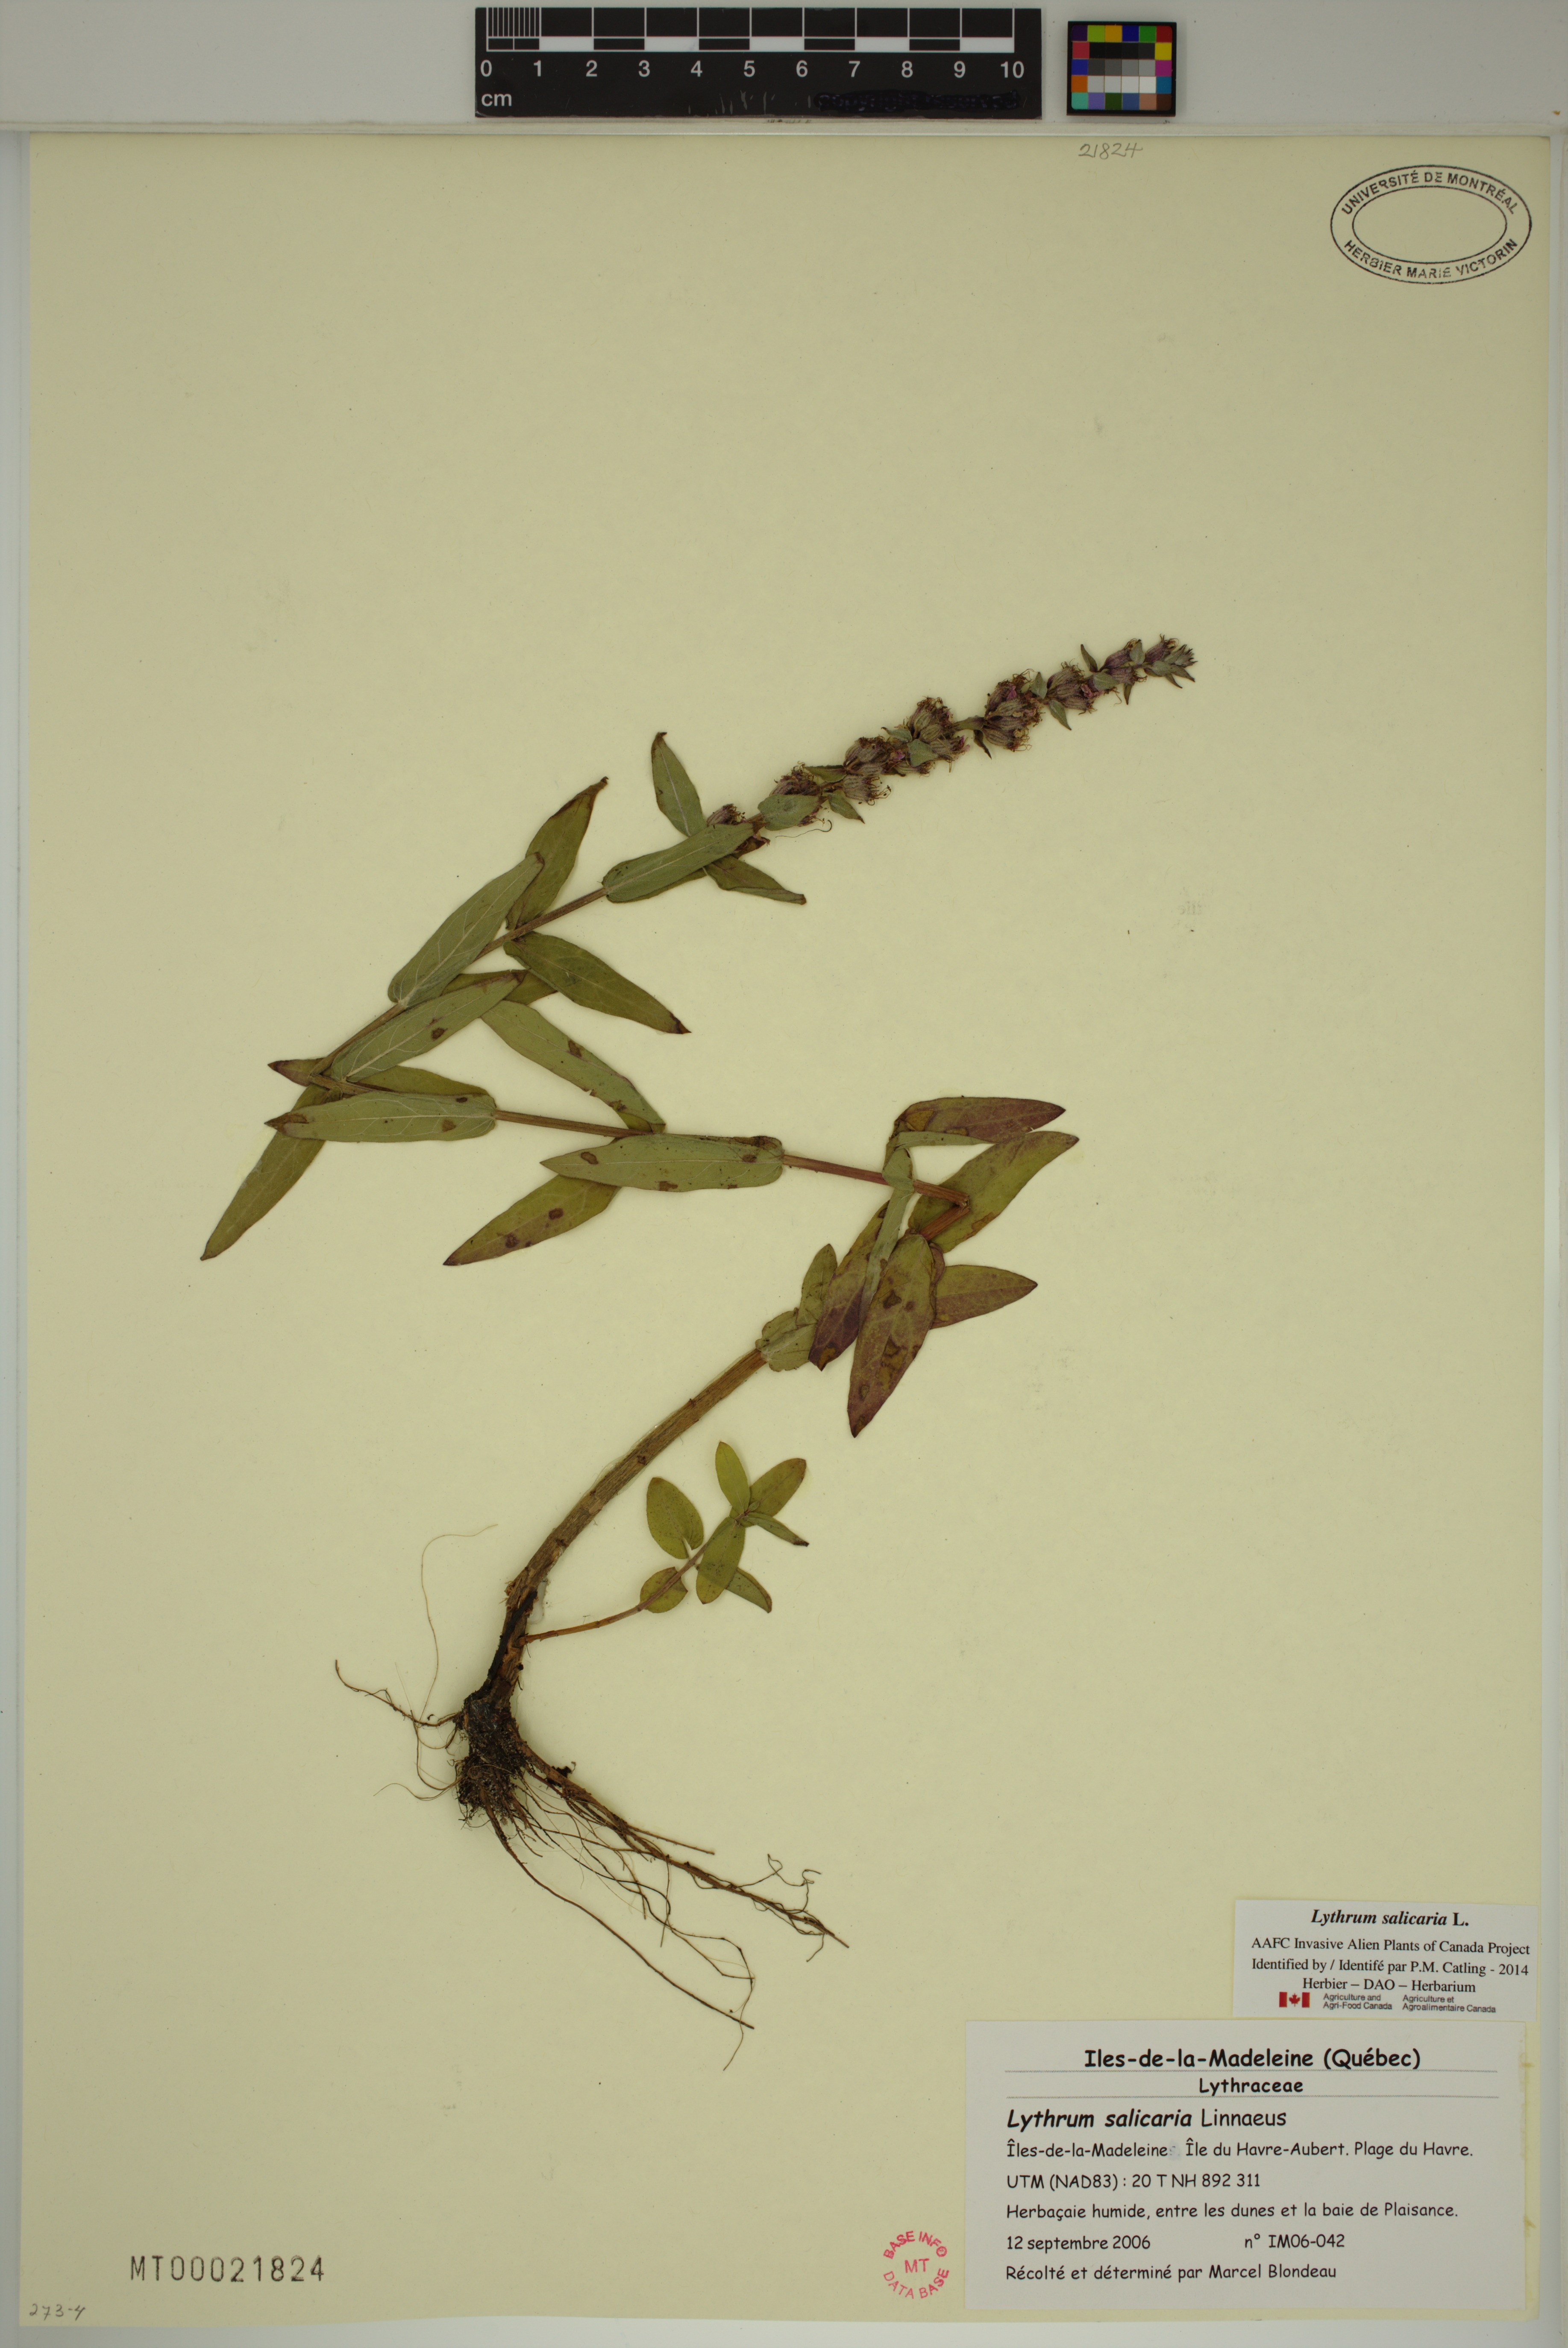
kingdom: Plantae
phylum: Tracheophyta
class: Magnoliopsida
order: Myrtales
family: Lythraceae
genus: Lythrum
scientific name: Lythrum salicaria
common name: Purple loosestrife
